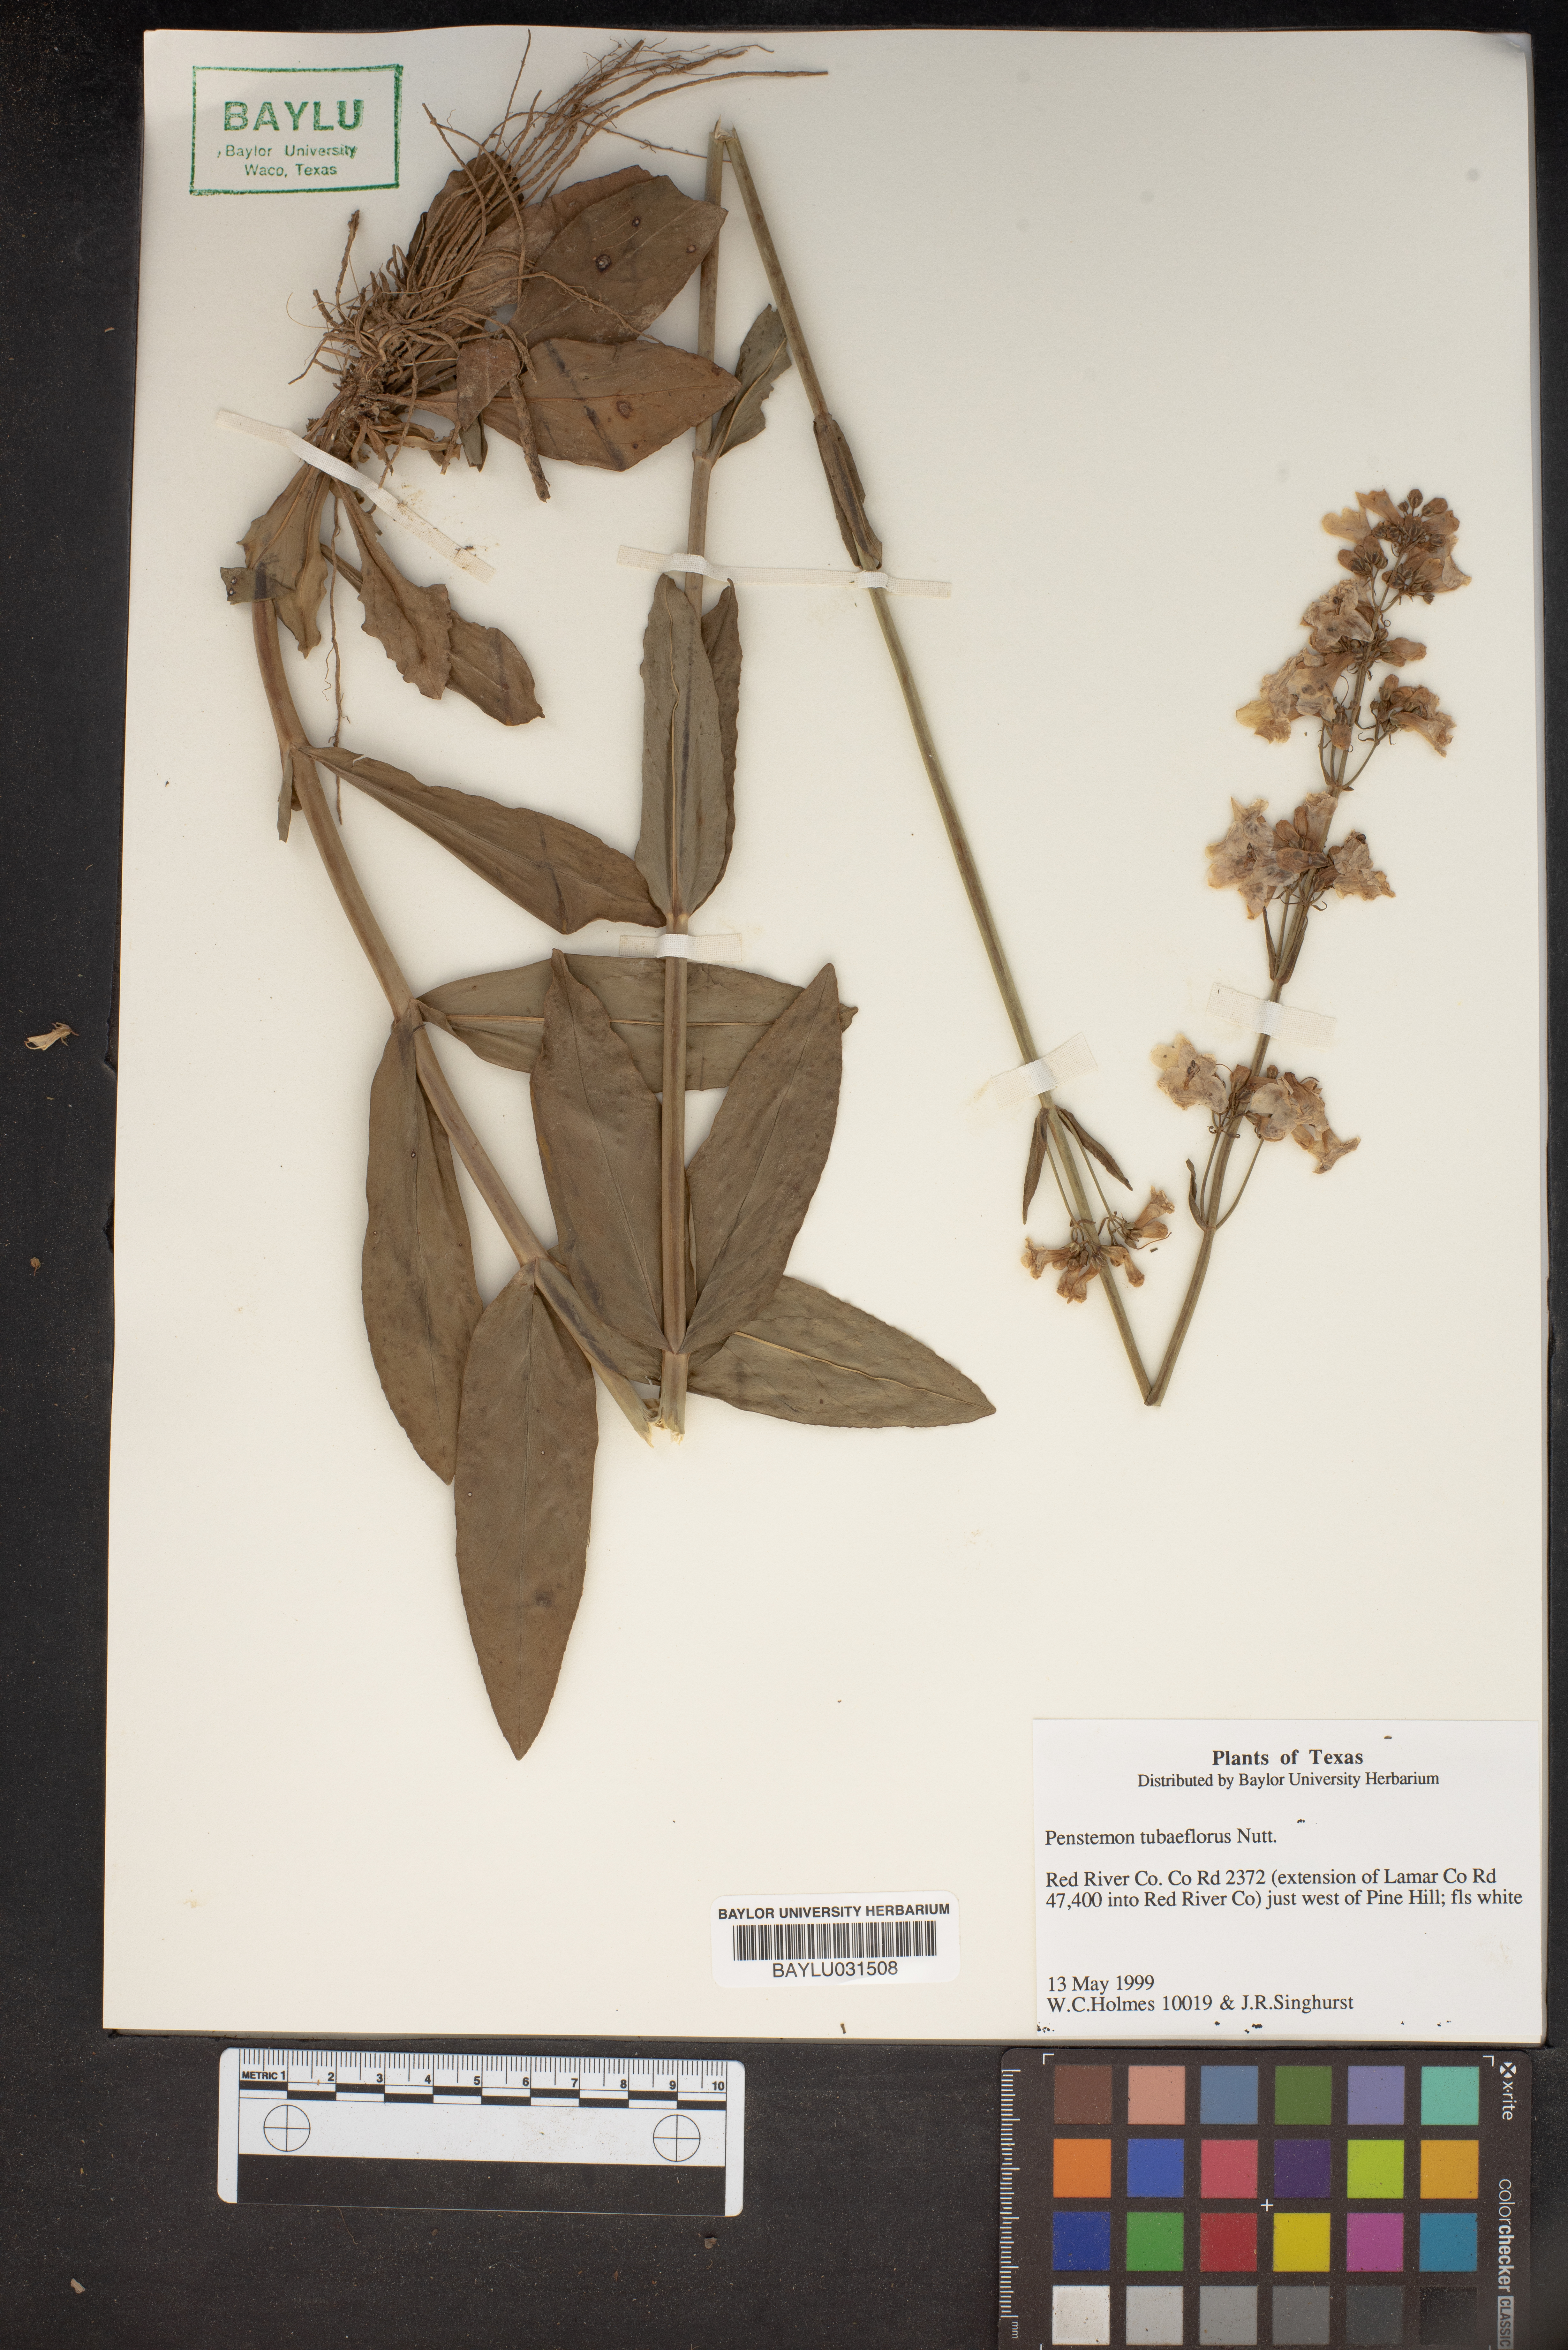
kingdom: Plantae
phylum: Tracheophyta
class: Magnoliopsida
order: Lamiales
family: Plantaginaceae
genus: Penstemon
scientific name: Penstemon tubaeflorus
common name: White wand beardtongue
